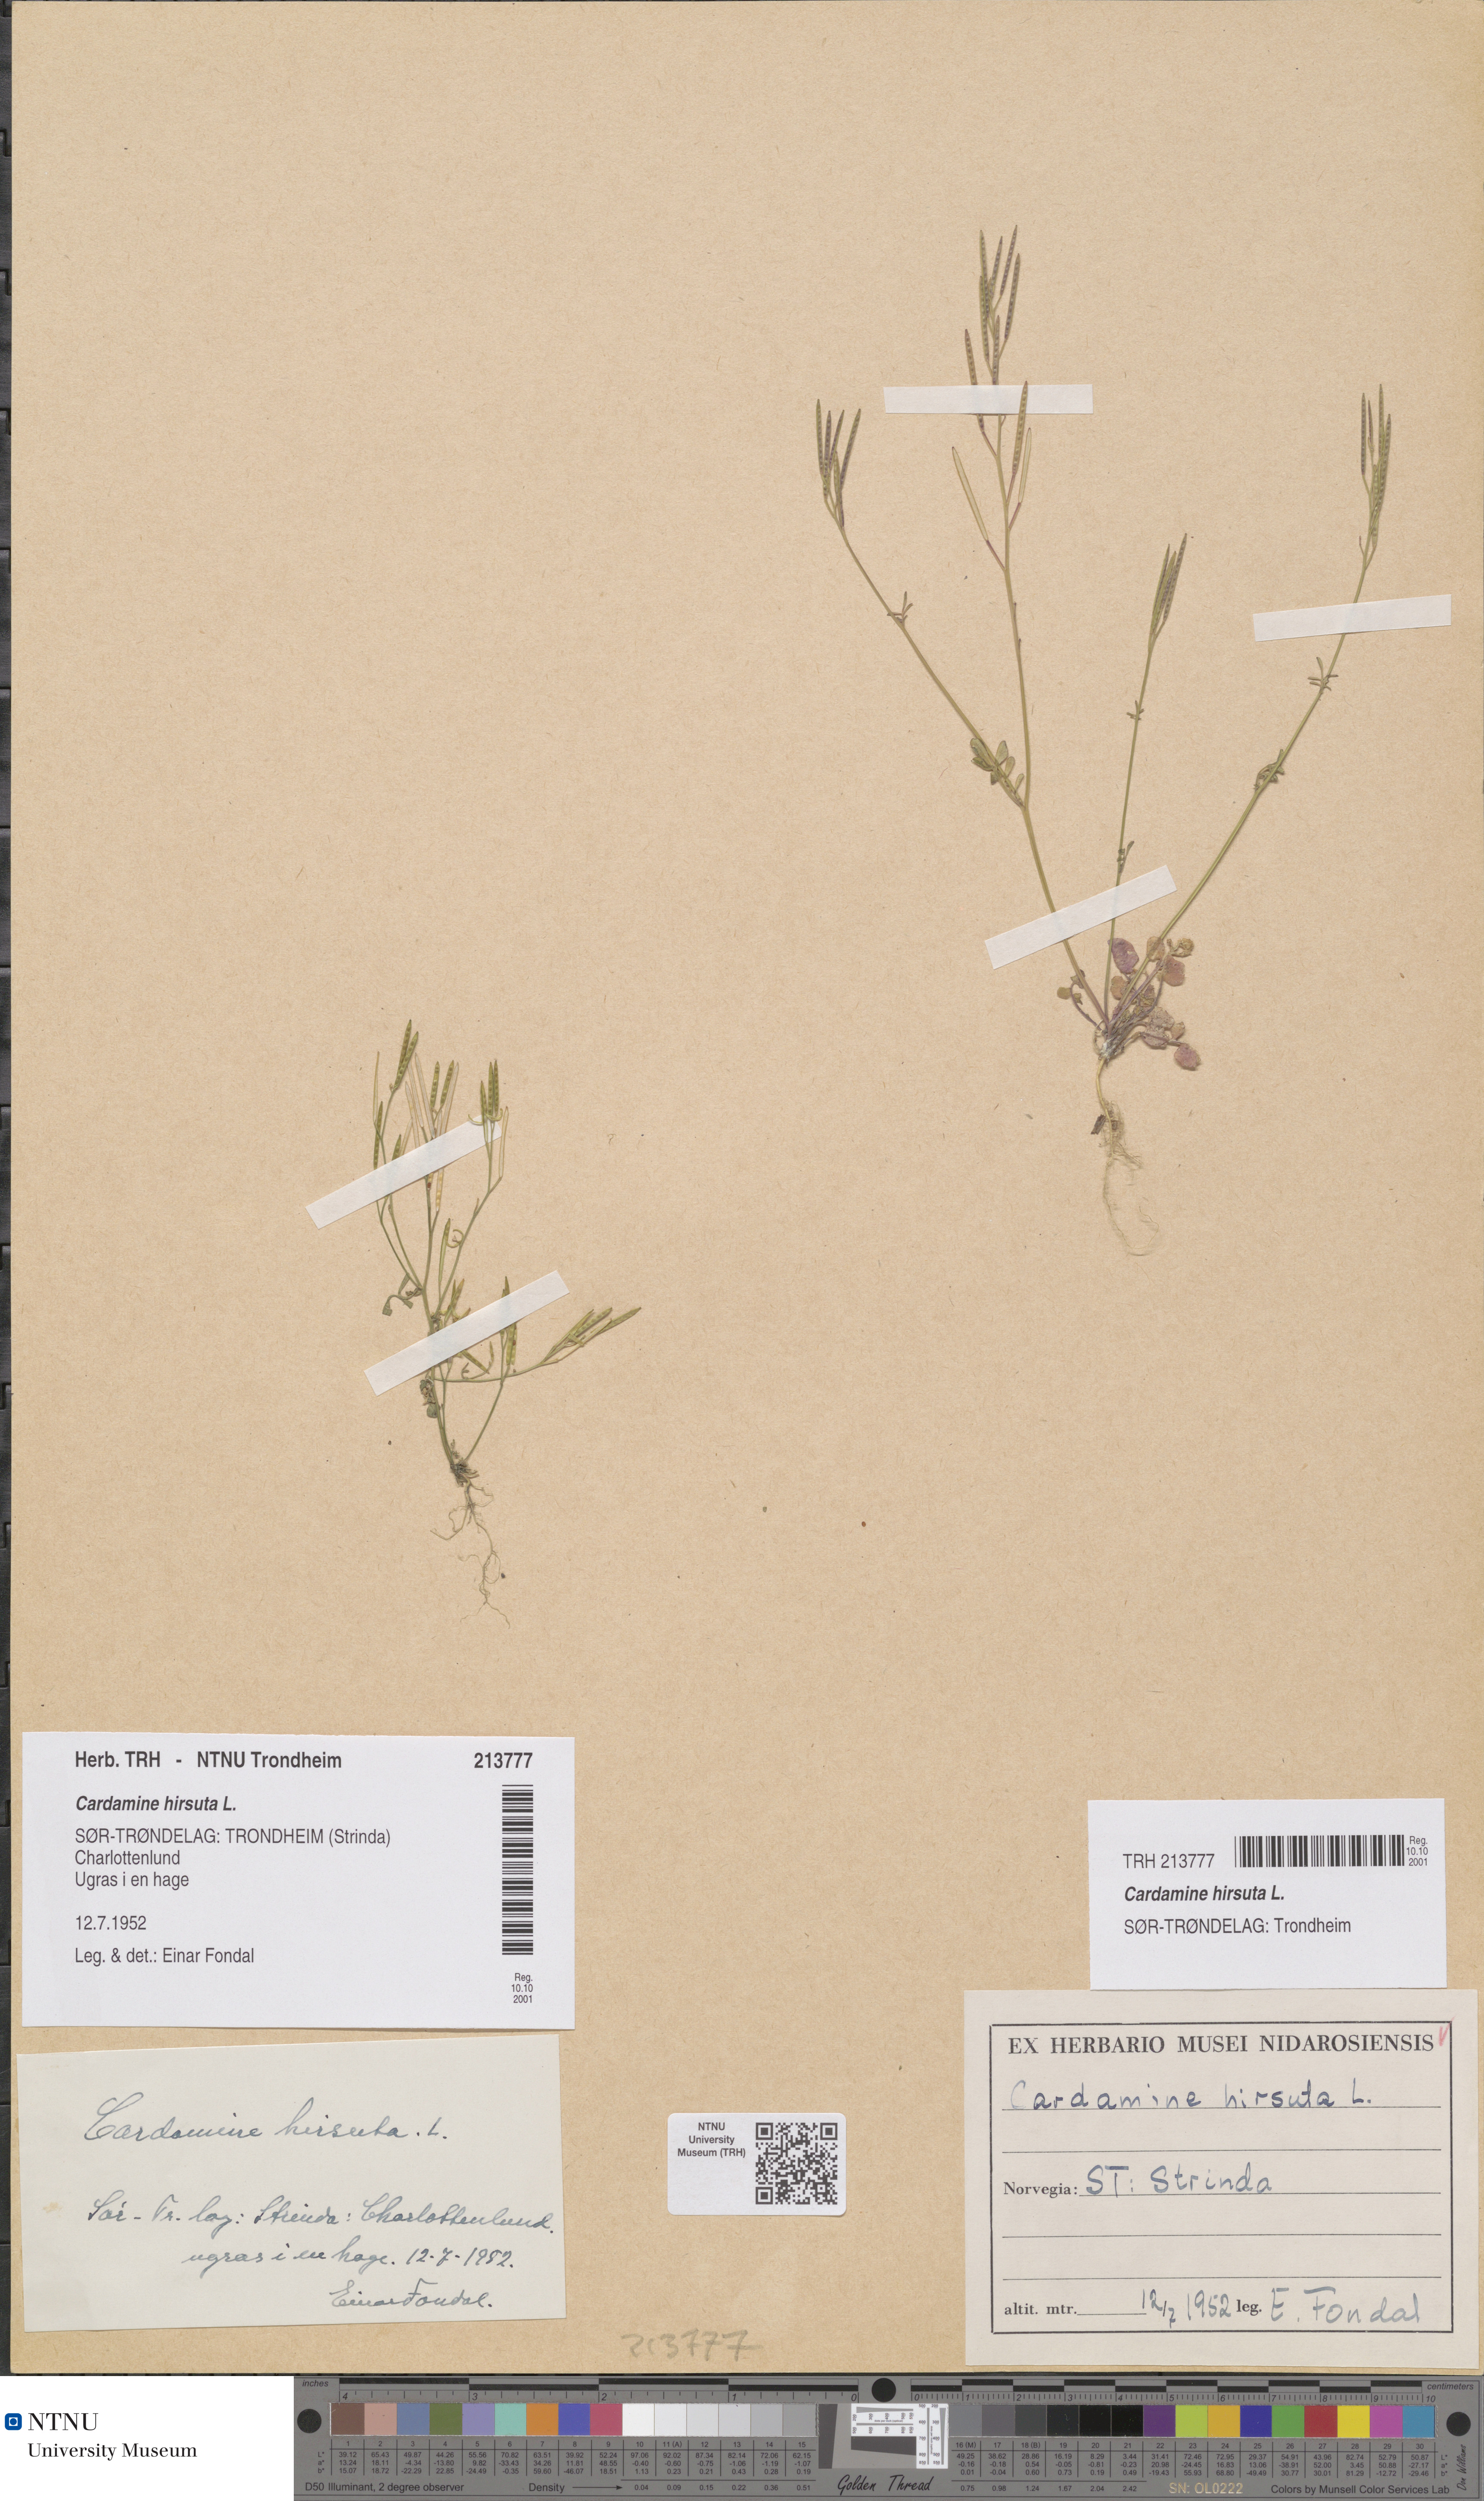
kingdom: Plantae
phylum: Tracheophyta
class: Magnoliopsida
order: Brassicales
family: Brassicaceae
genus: Cardamine
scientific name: Cardamine hirsuta
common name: Hairy bittercress
